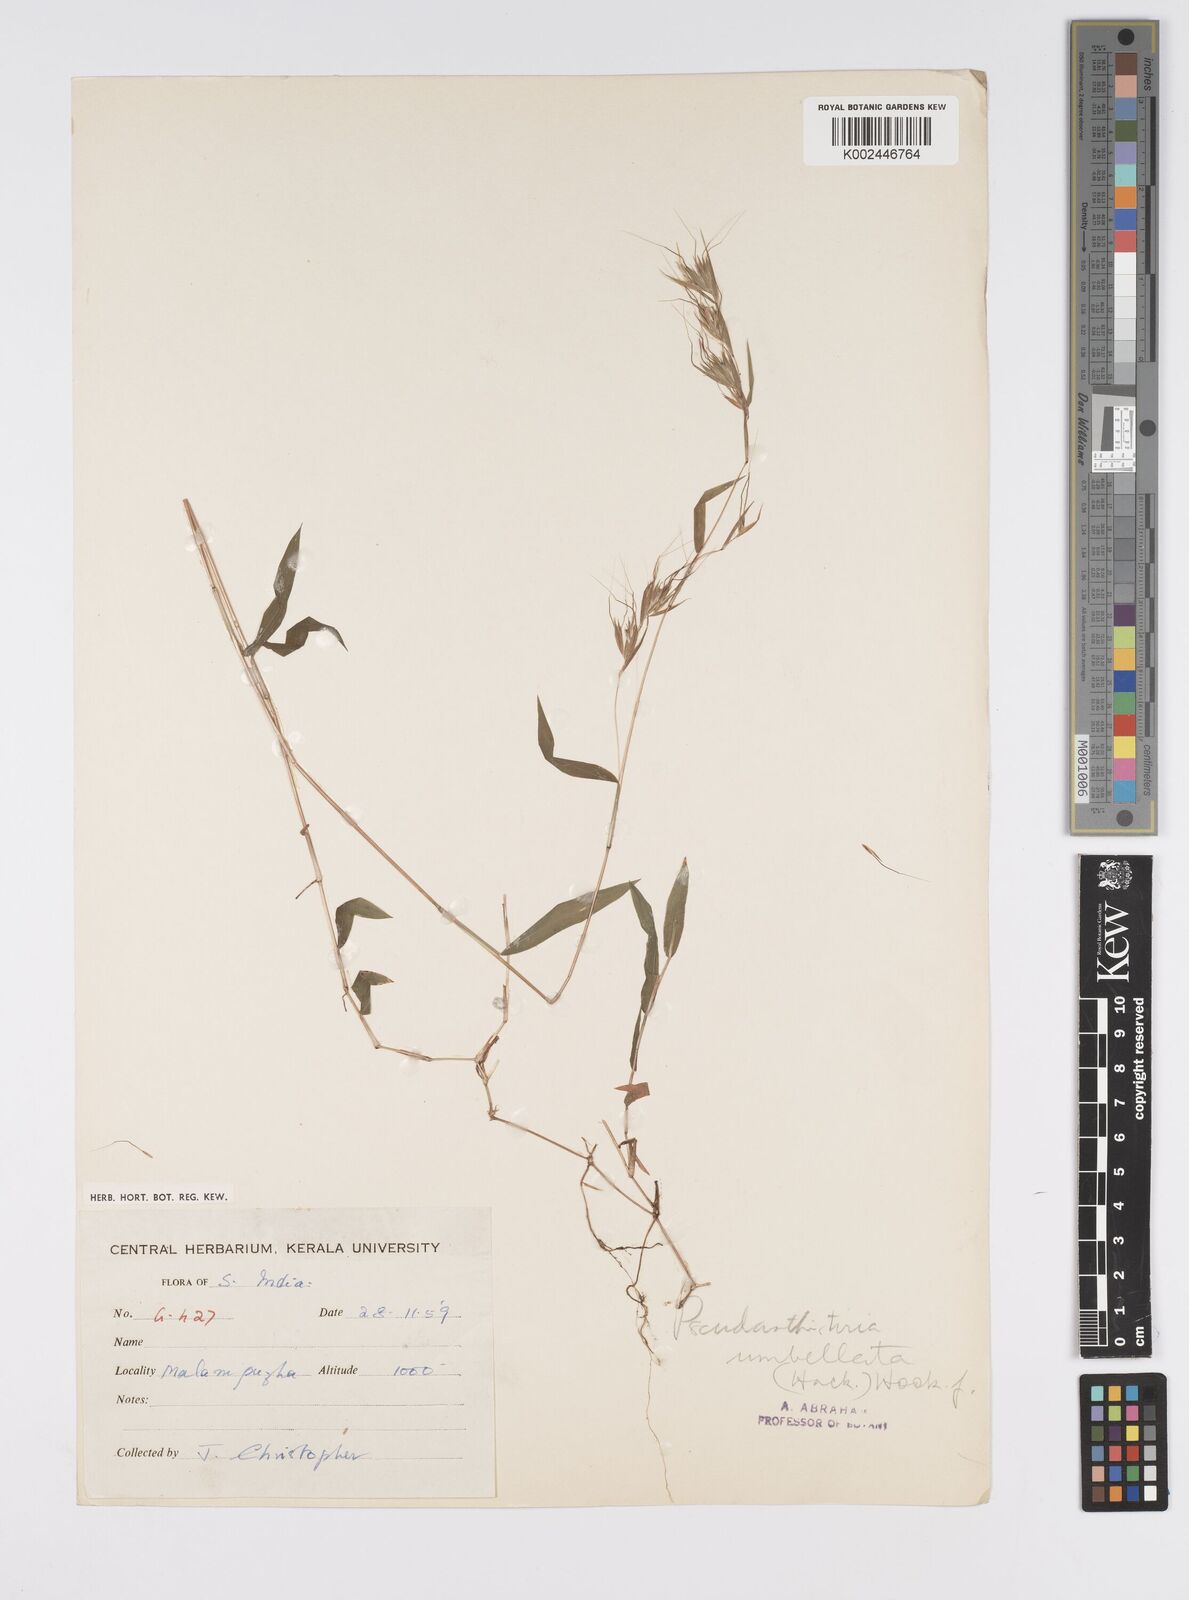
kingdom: Plantae
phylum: Tracheophyta
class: Liliopsida
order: Poales
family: Poaceae
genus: Pseudanthistiria
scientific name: Pseudanthistiria umbellata
